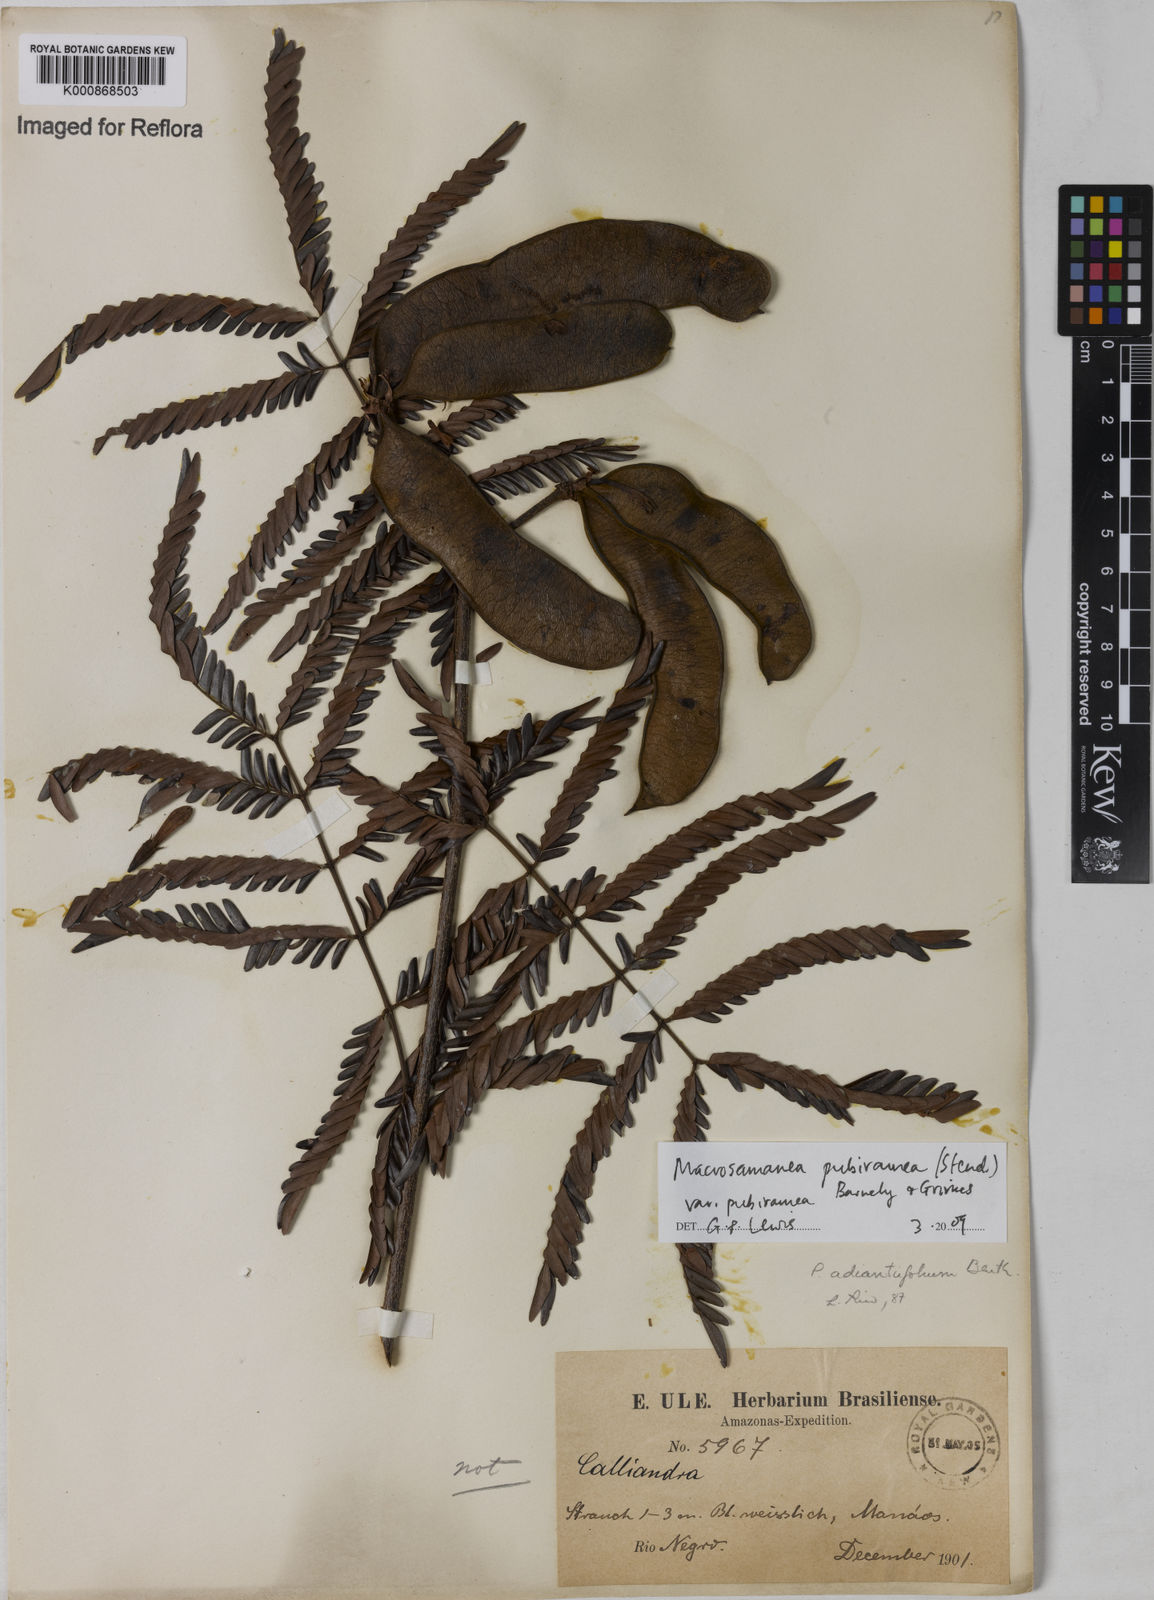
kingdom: Plantae
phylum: Tracheophyta
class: Magnoliopsida
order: Fabales
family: Fabaceae
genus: Macrosamanea
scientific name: Macrosamanea pubiramea
